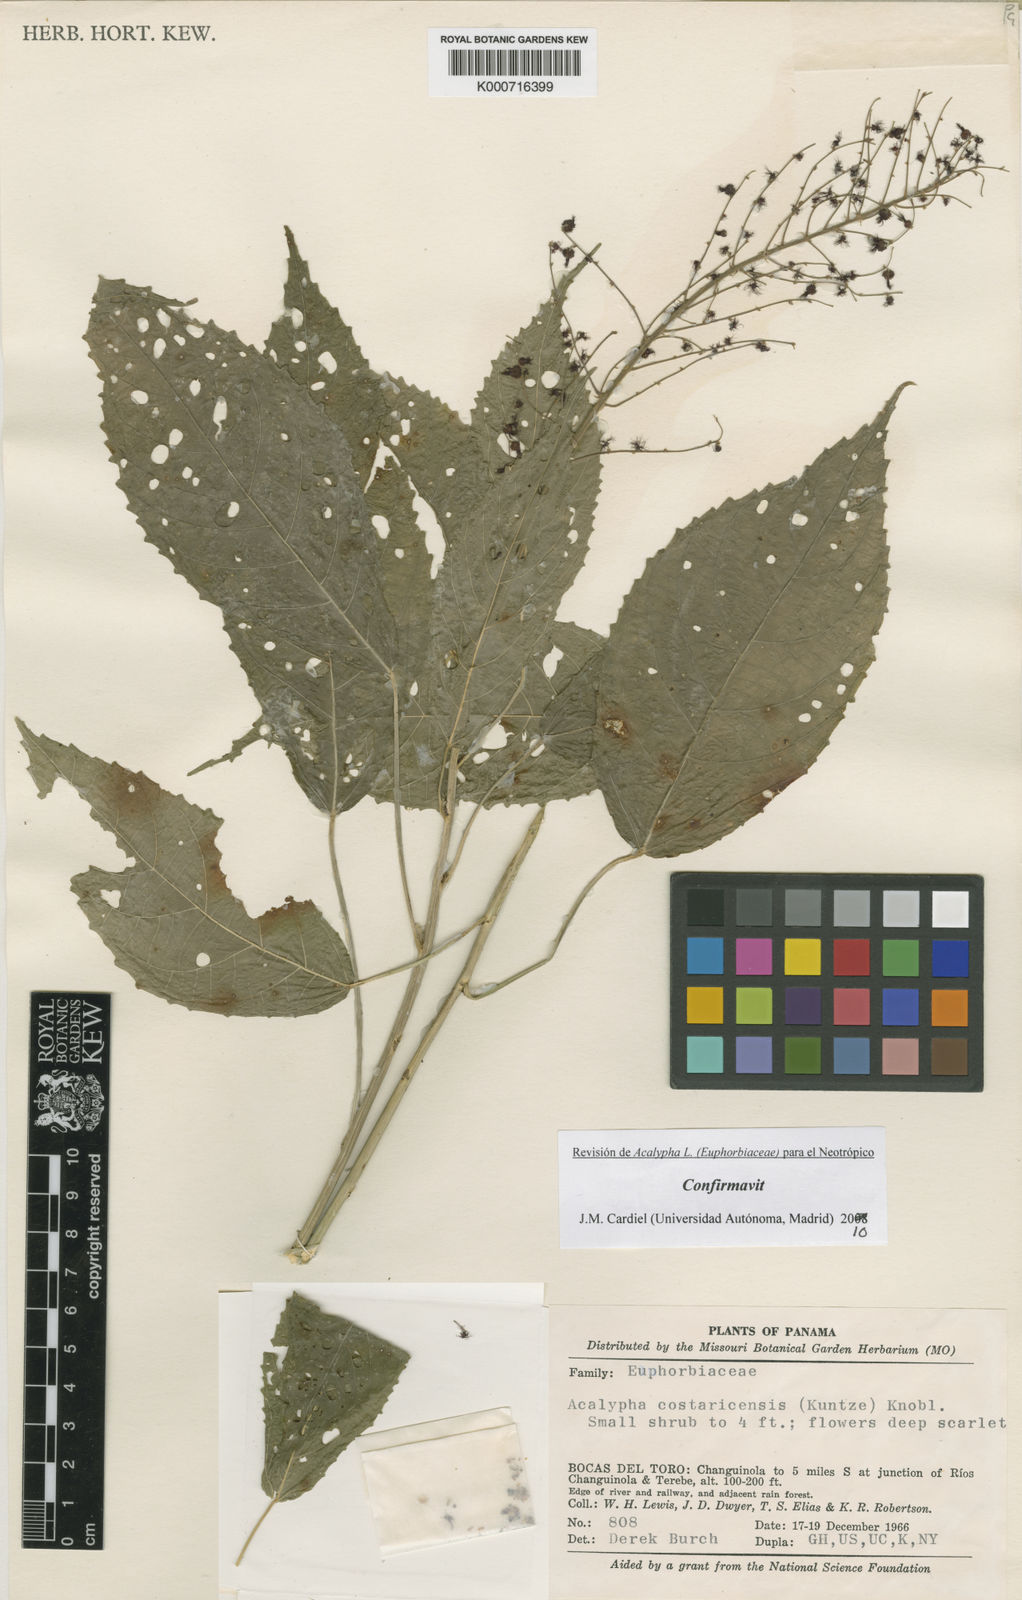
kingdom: Plantae
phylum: Tracheophyta
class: Magnoliopsida
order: Malpighiales
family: Euphorbiaceae
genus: Acalypha
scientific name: Acalypha costaricensis
